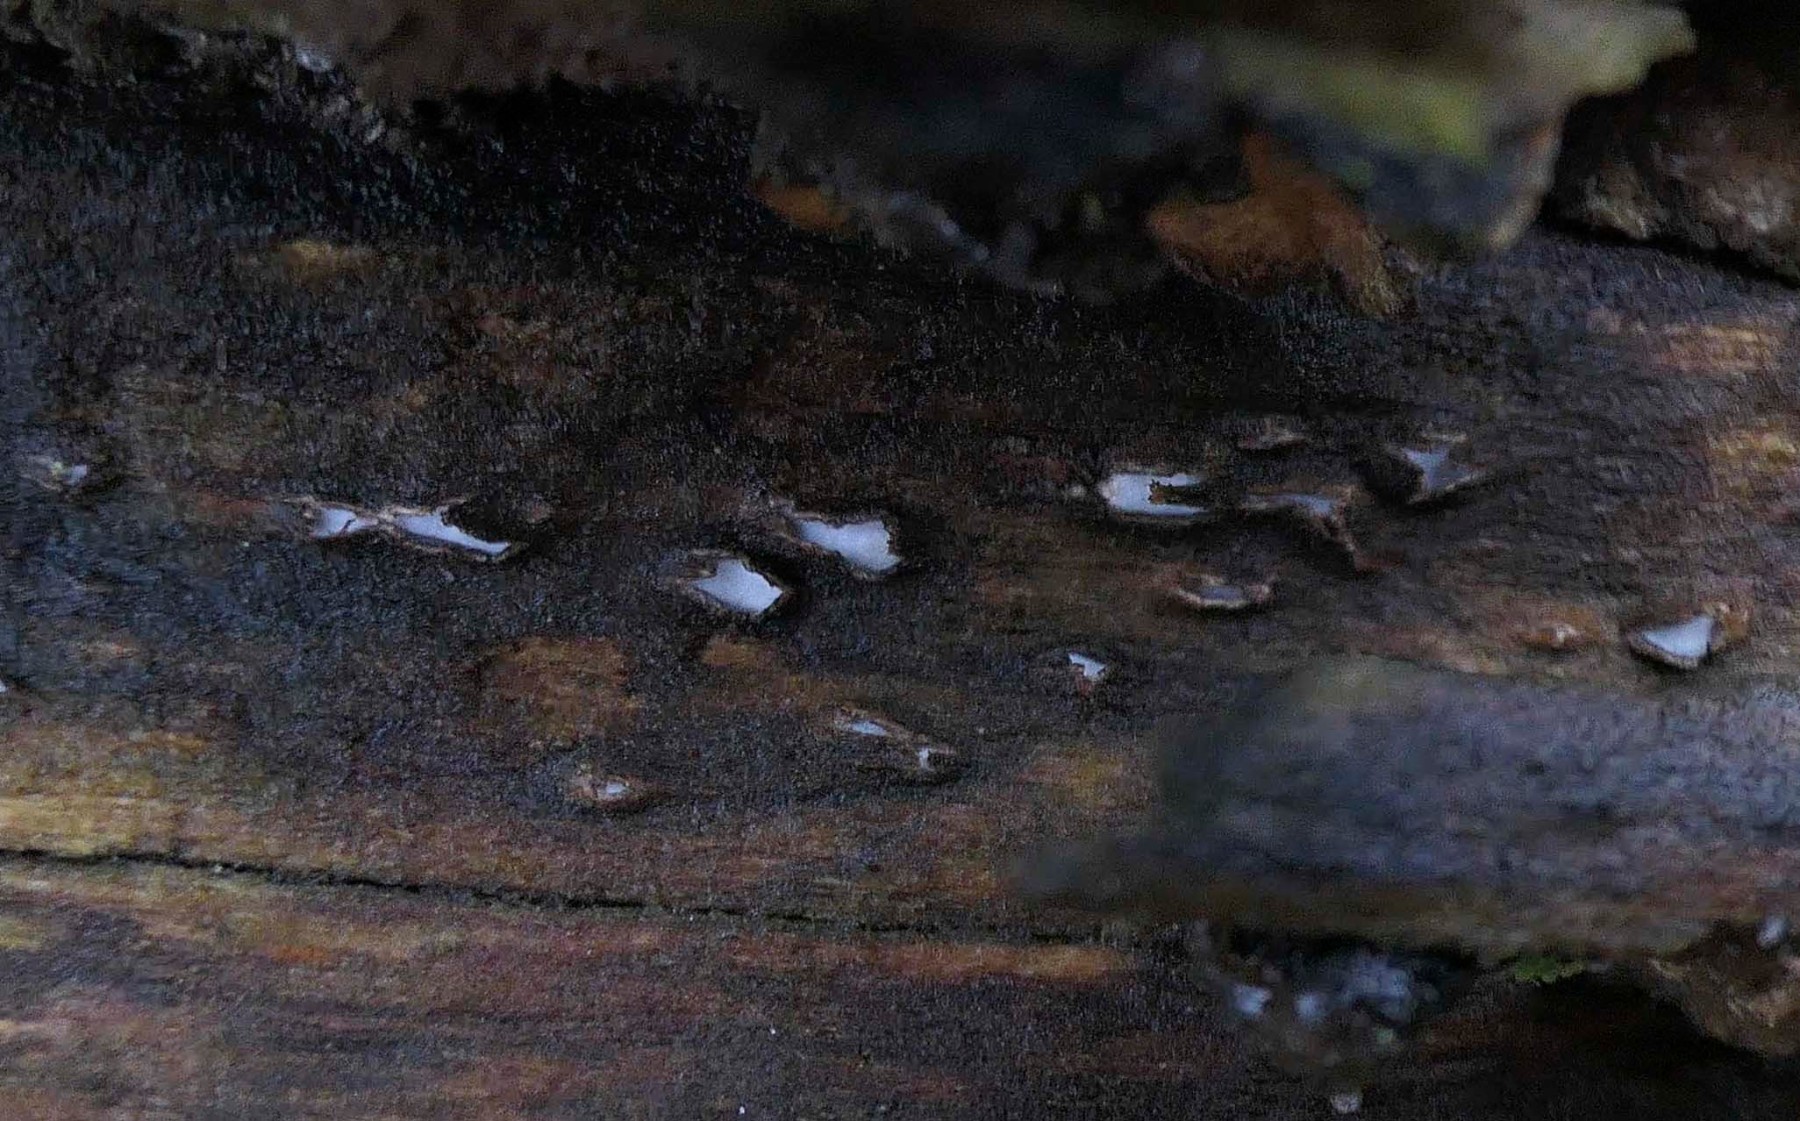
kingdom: Fungi
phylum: Ascomycota
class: Leotiomycetes
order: Chaetomellales
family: Marthamycetaceae
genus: Propolis
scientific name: Propolis farinosa
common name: almindelig vedsprængerskive
